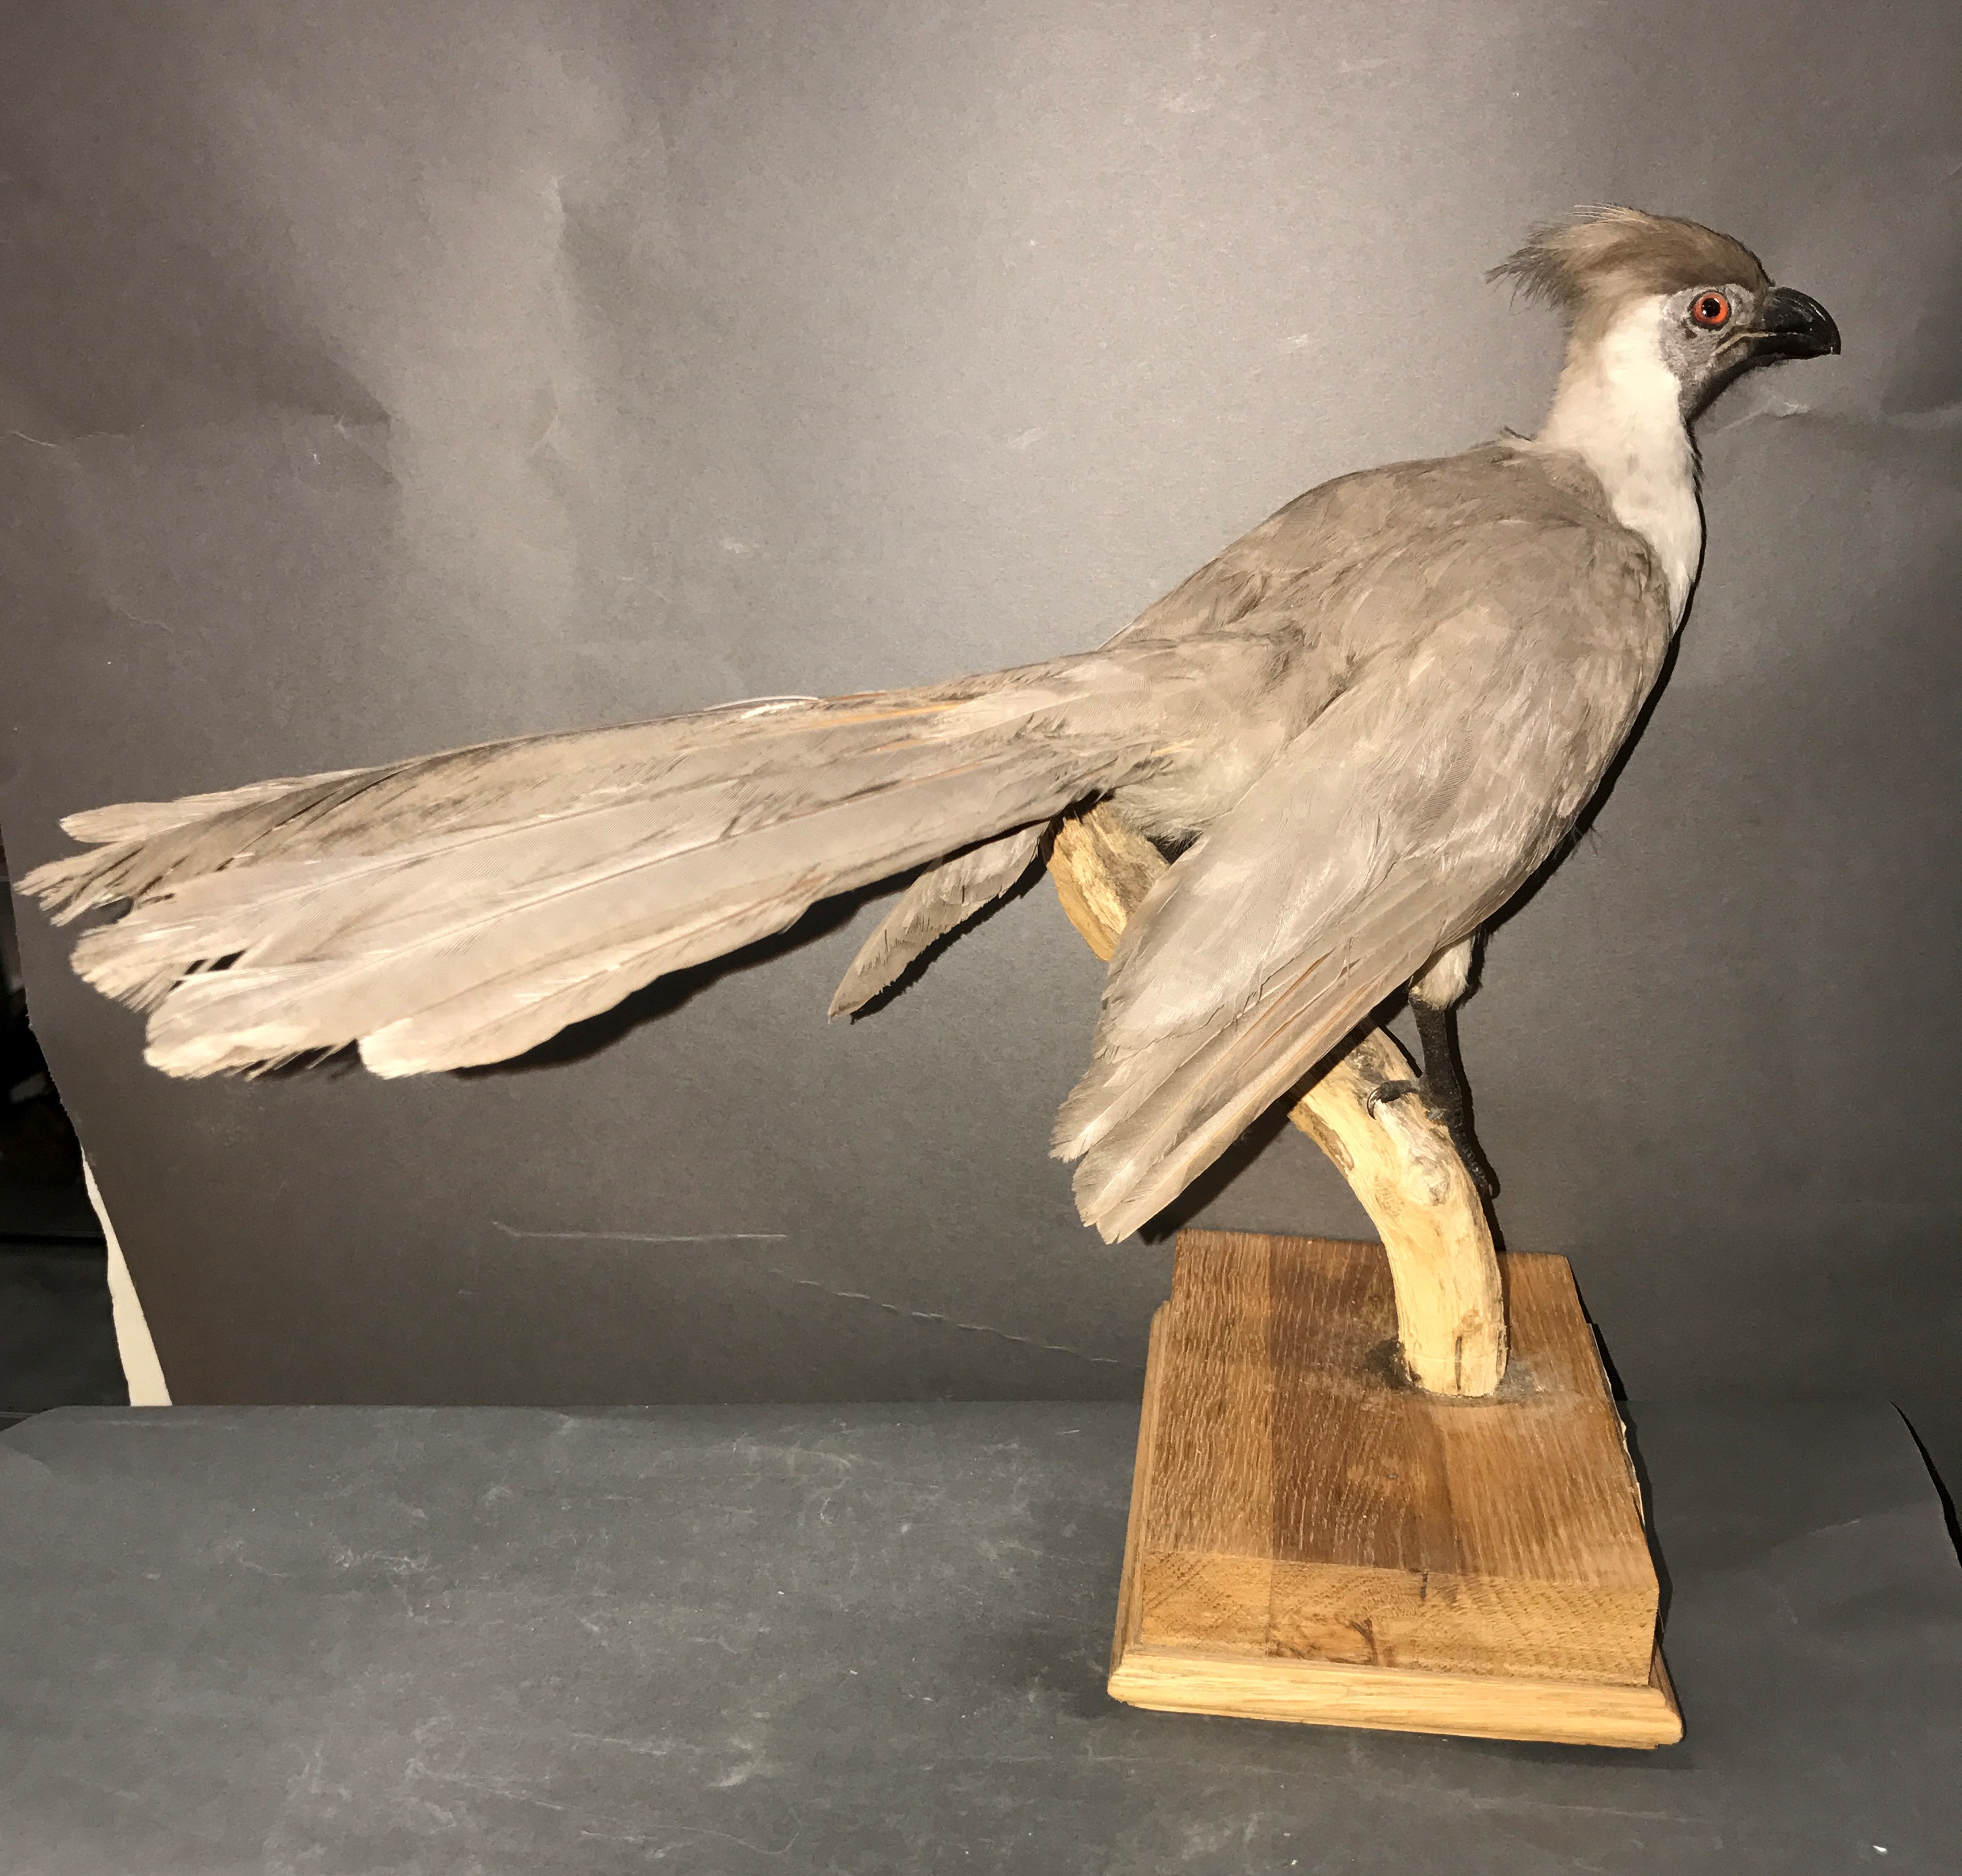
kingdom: Animalia
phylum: Chordata
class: Aves
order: Musophagiformes
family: Musophagidae
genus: Corythaixoides
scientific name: Corythaixoides personatus
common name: Bare-faced go-away-bird
